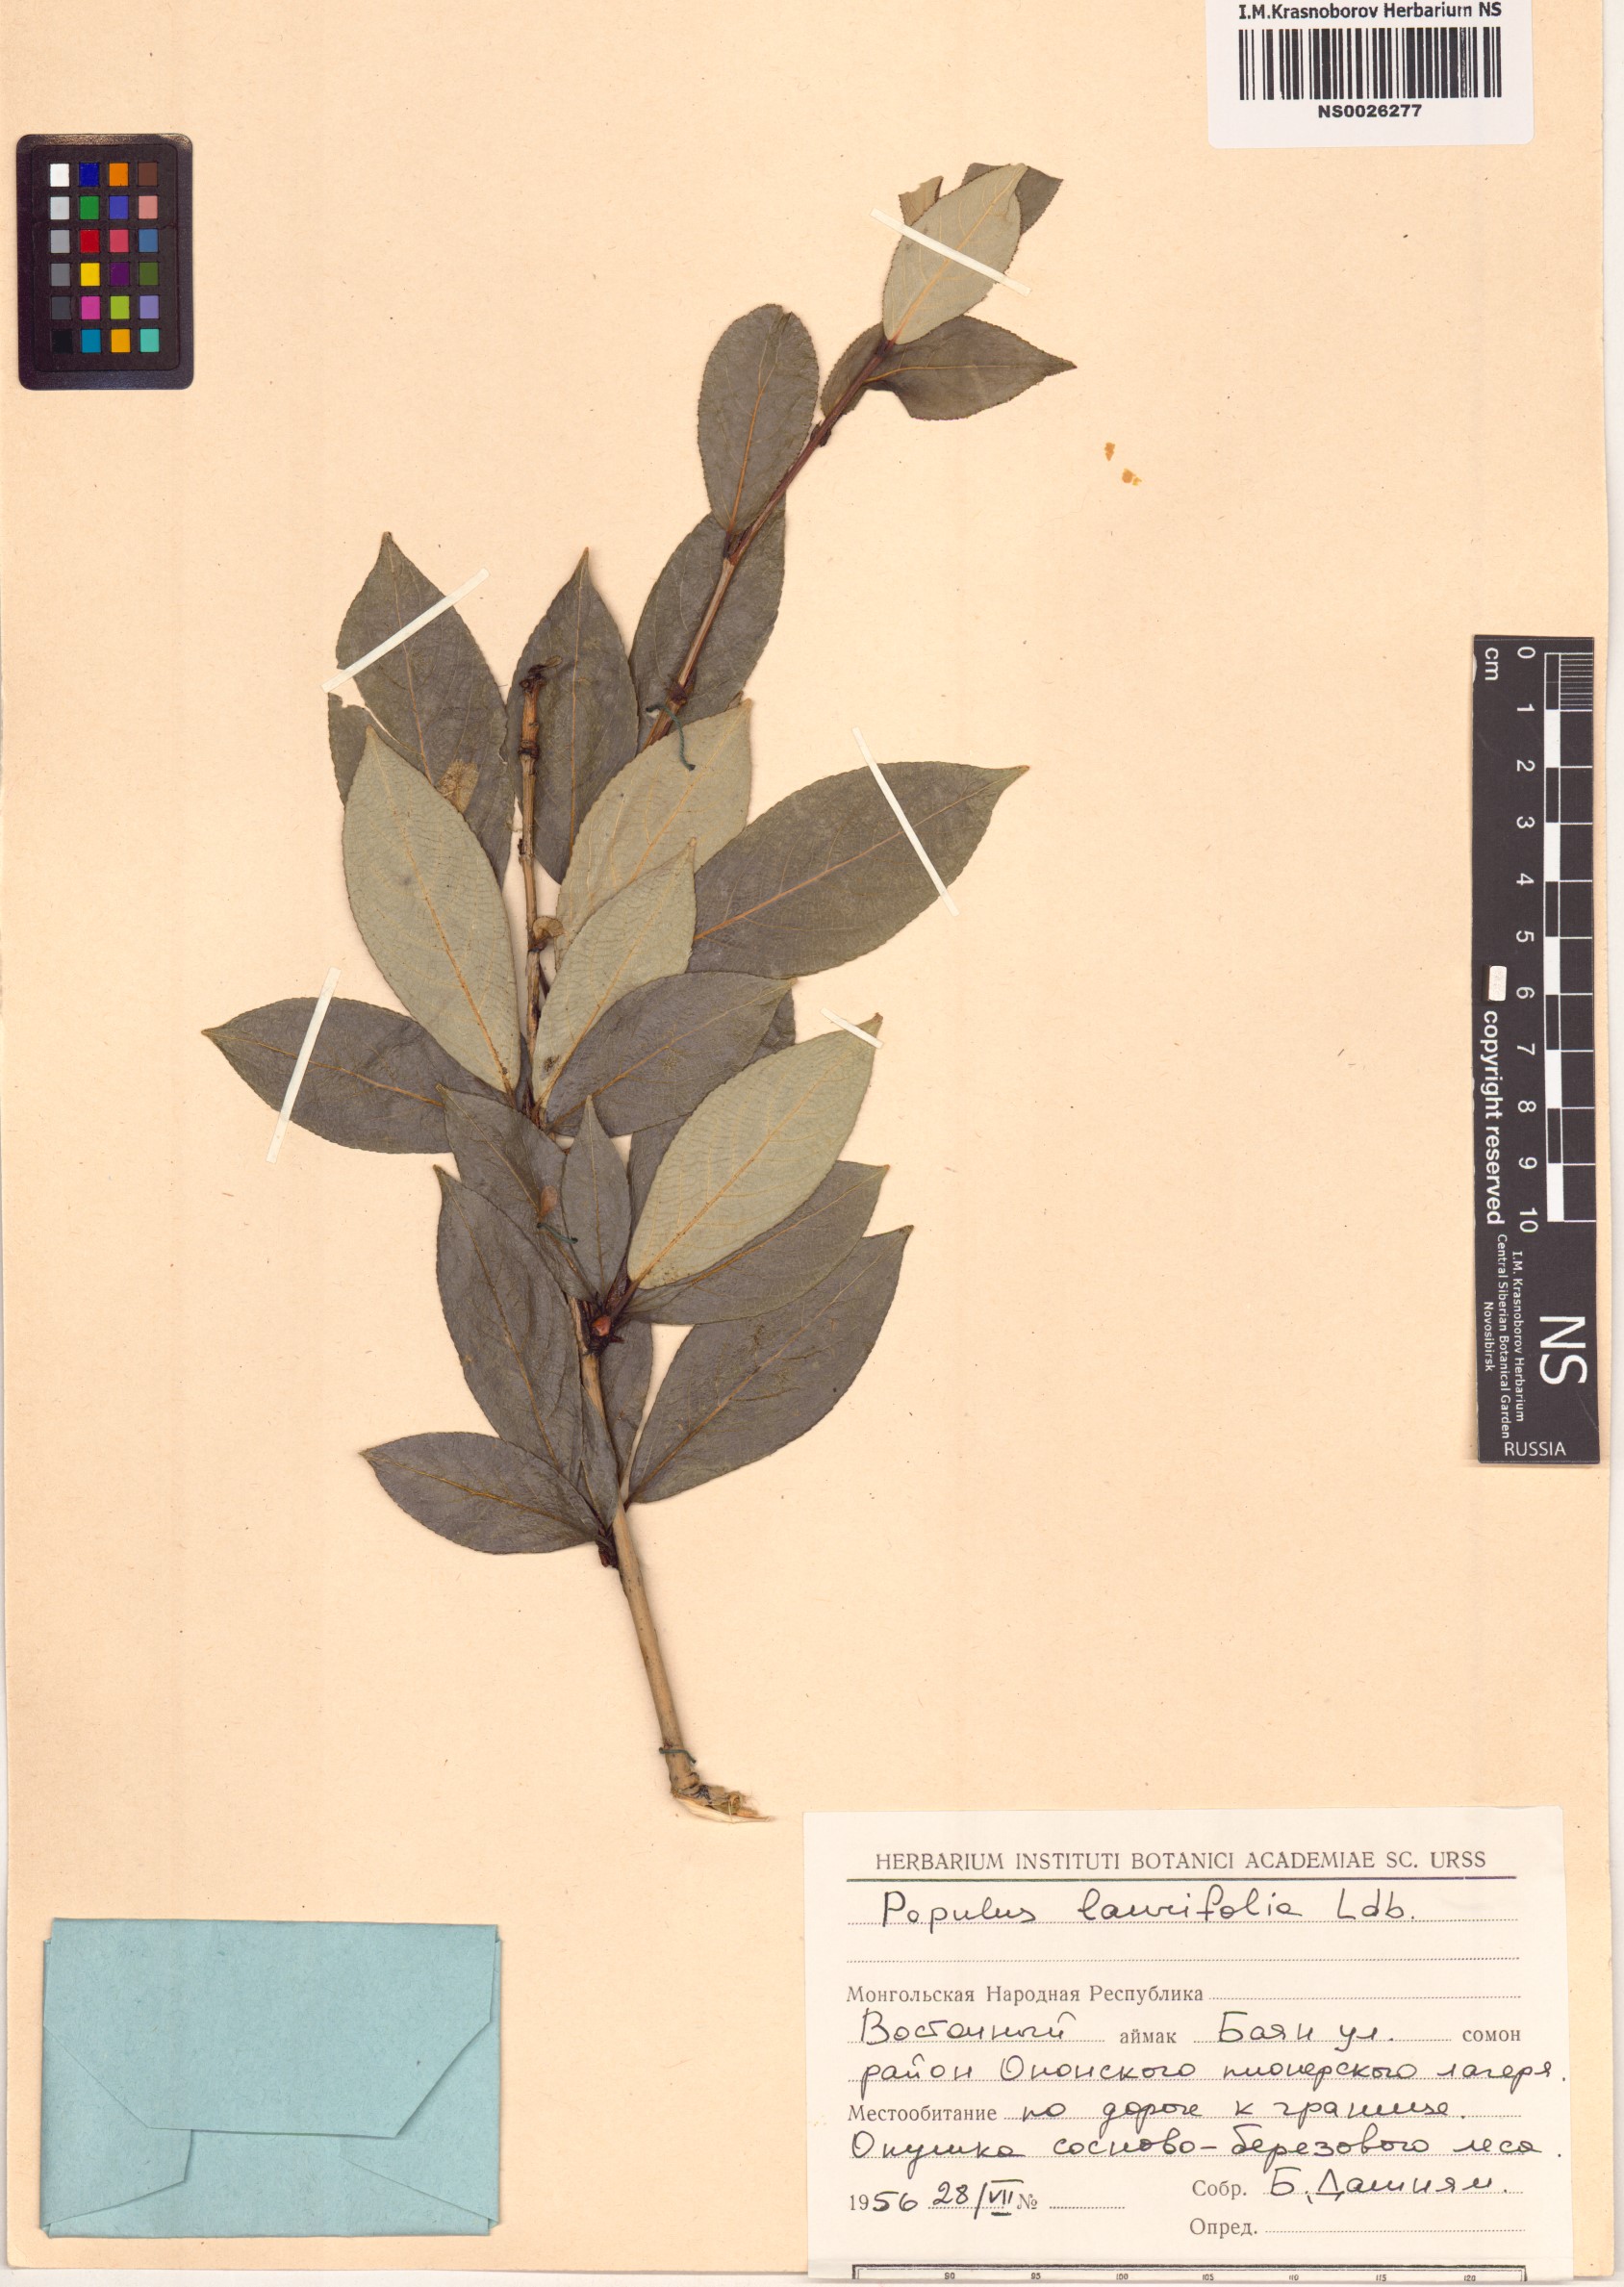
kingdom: Plantae
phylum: Tracheophyta
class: Magnoliopsida
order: Malpighiales
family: Salicaceae
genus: Populus
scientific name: Populus laurifolia
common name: Laurel-leaf poplar
